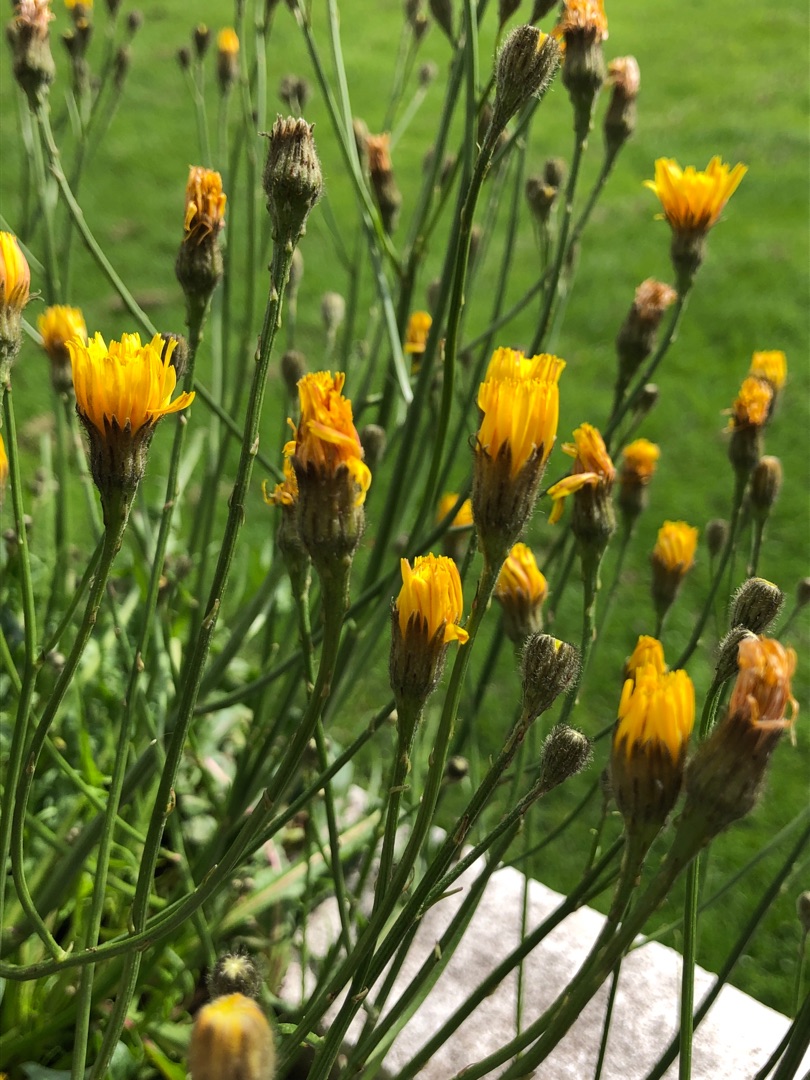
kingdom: Plantae
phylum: Tracheophyta
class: Magnoliopsida
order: Asterales
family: Asteraceae
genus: Scorzoneroides
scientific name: Scorzoneroides autumnalis
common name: Høst-borst
